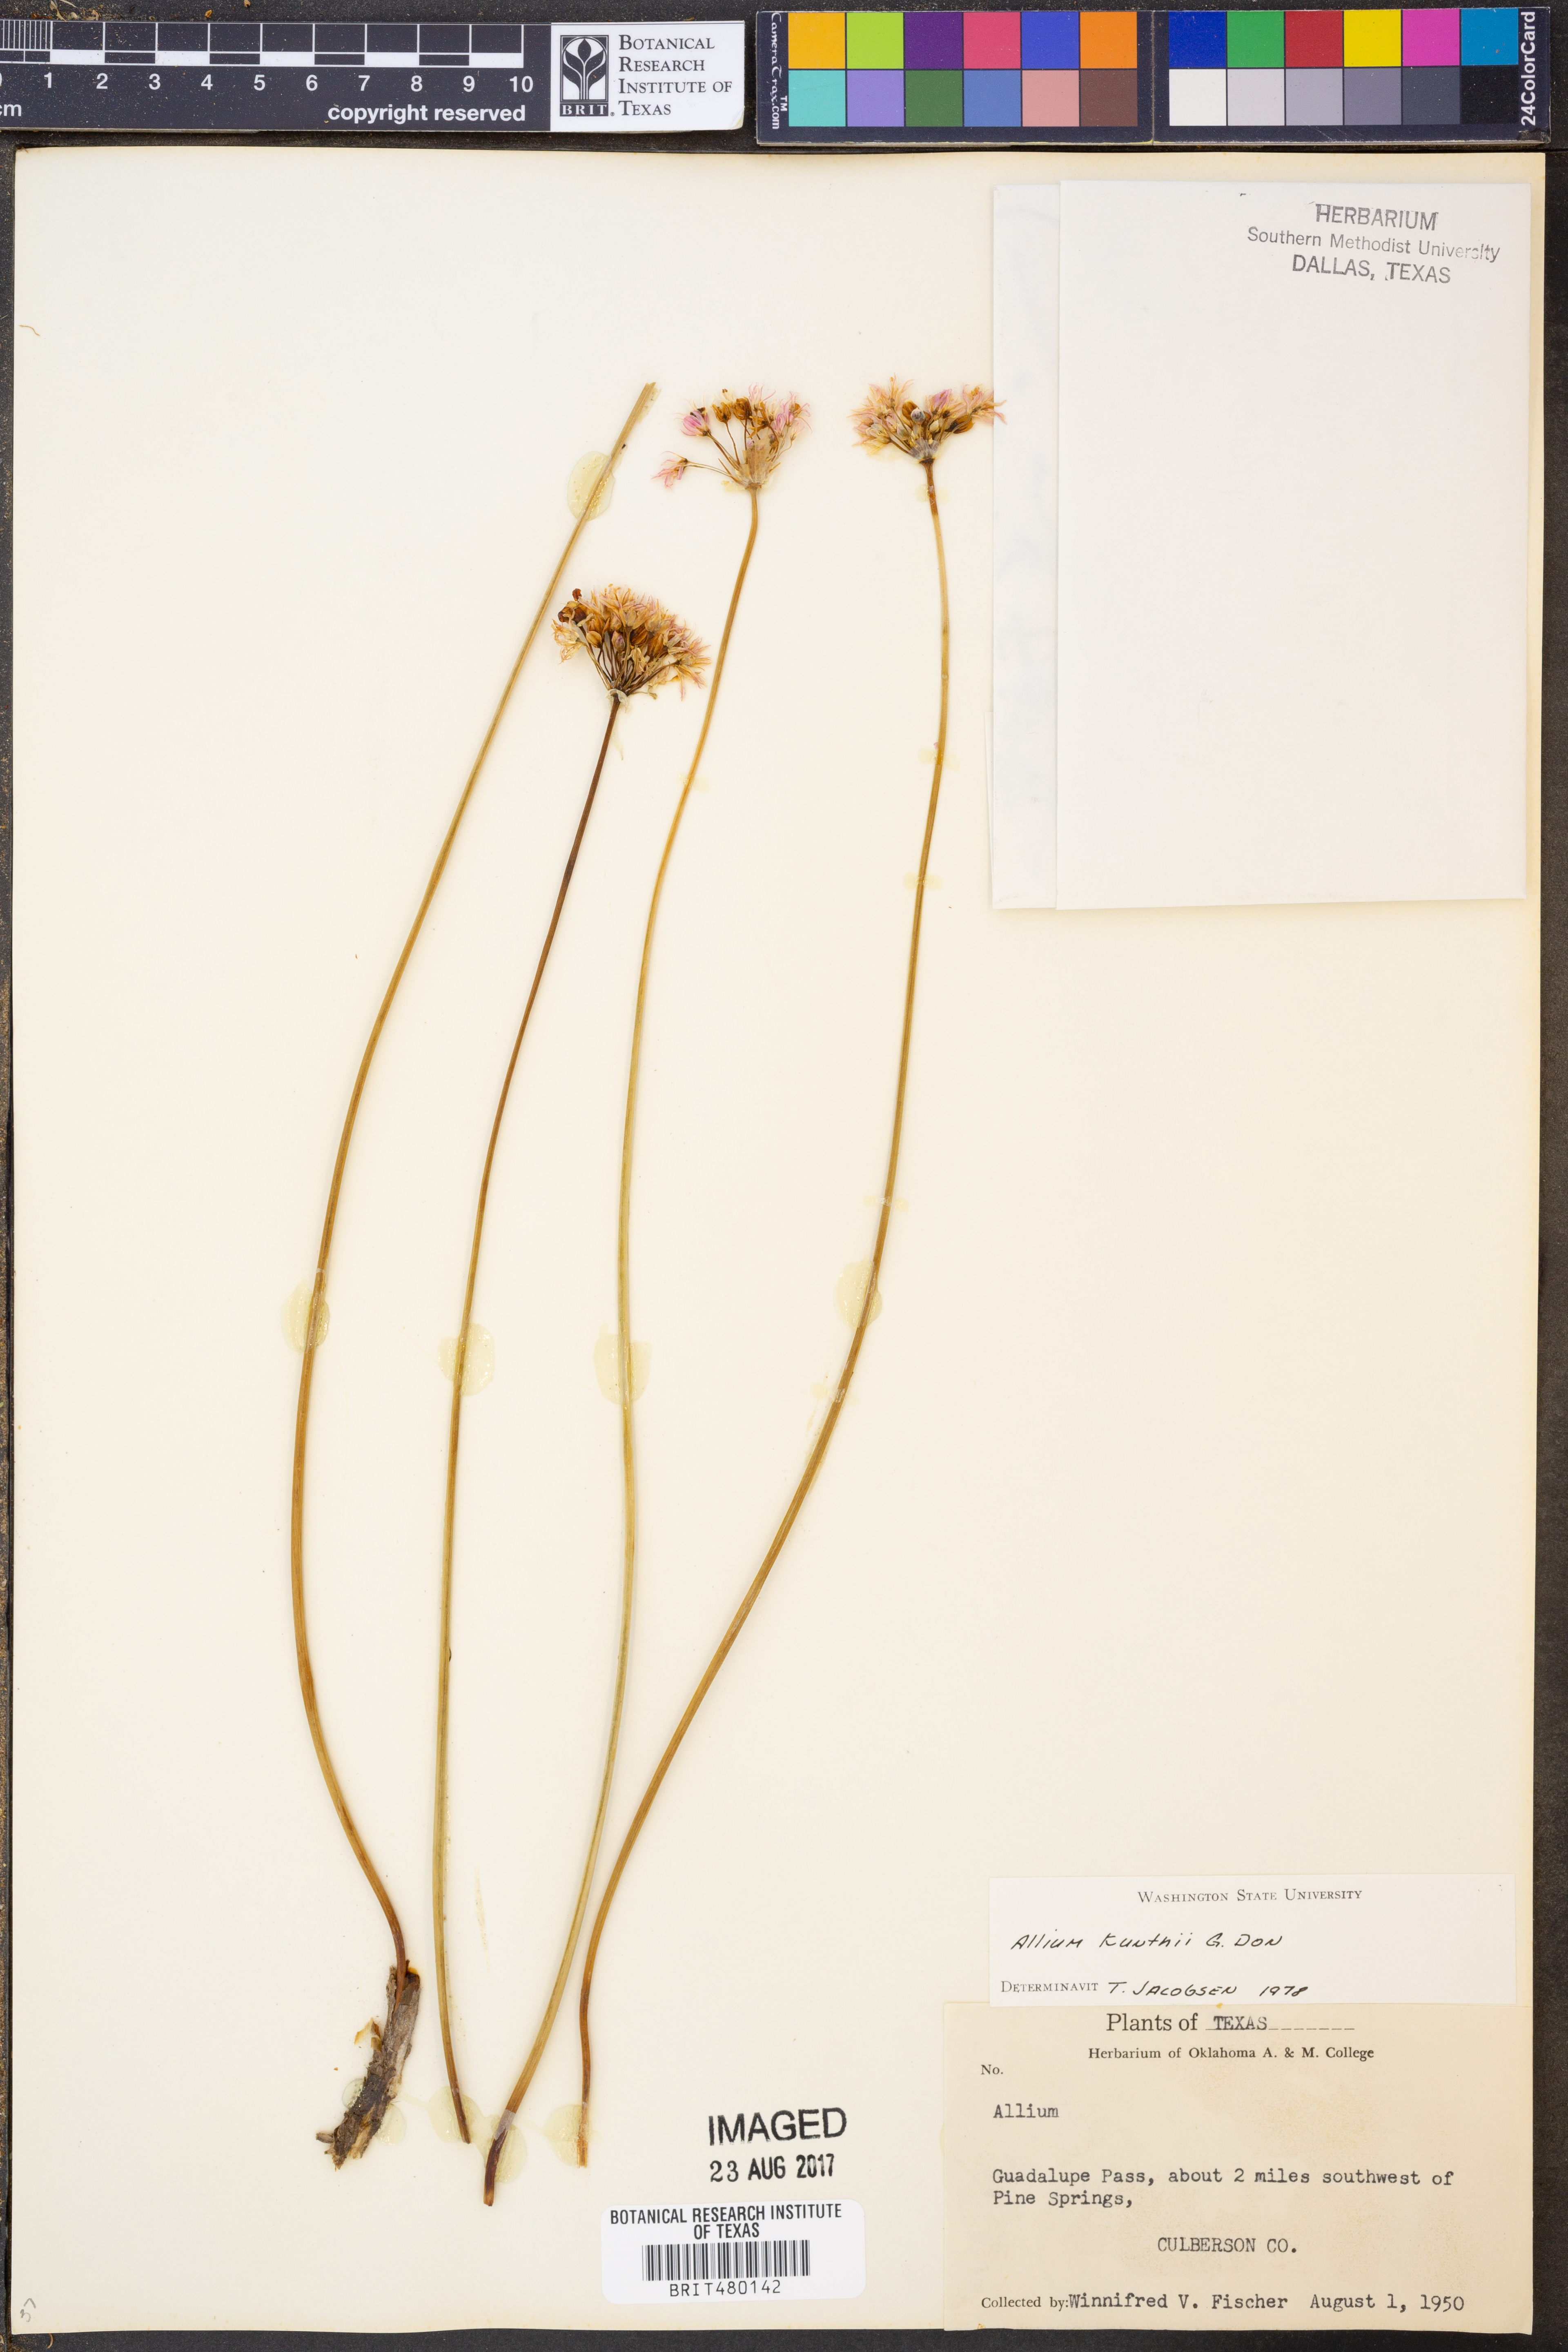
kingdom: Plantae
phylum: Tracheophyta
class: Liliopsida
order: Asparagales
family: Amaryllidaceae
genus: Allium
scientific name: Allium longifolium
